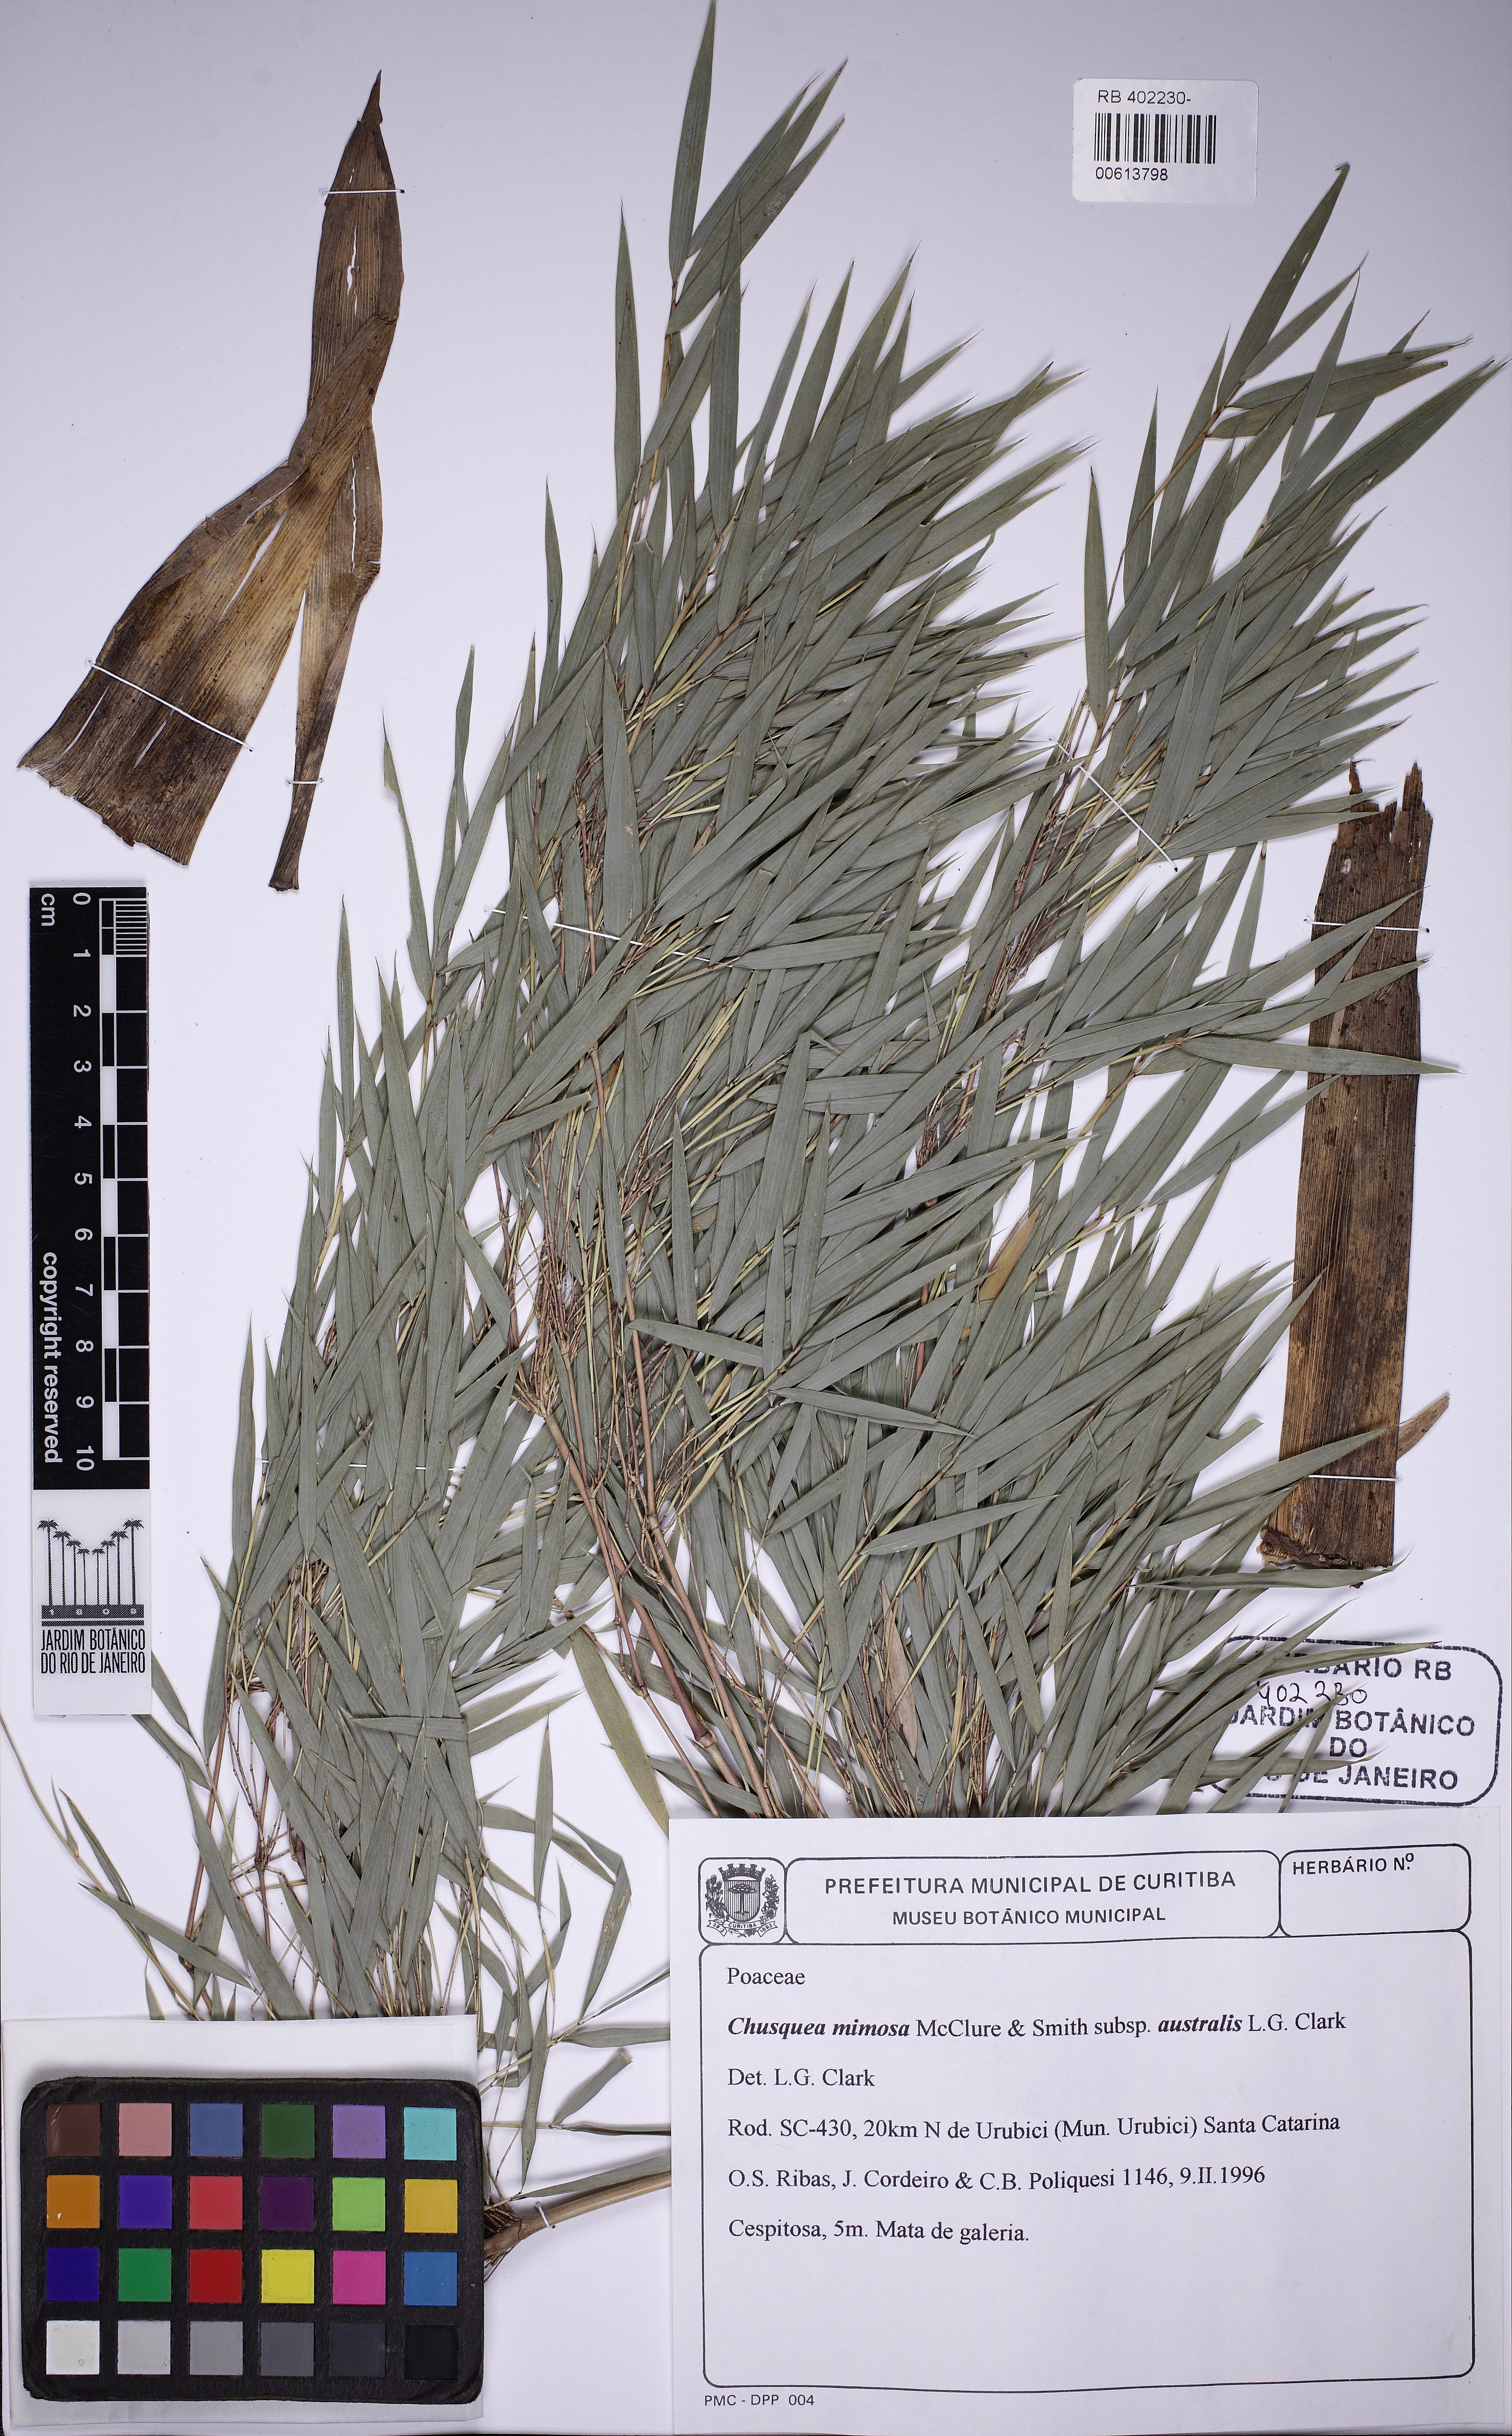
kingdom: Plantae
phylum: Tracheophyta
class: Liliopsida
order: Poales
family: Poaceae
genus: Chusquea
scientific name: Chusquea mimosa
